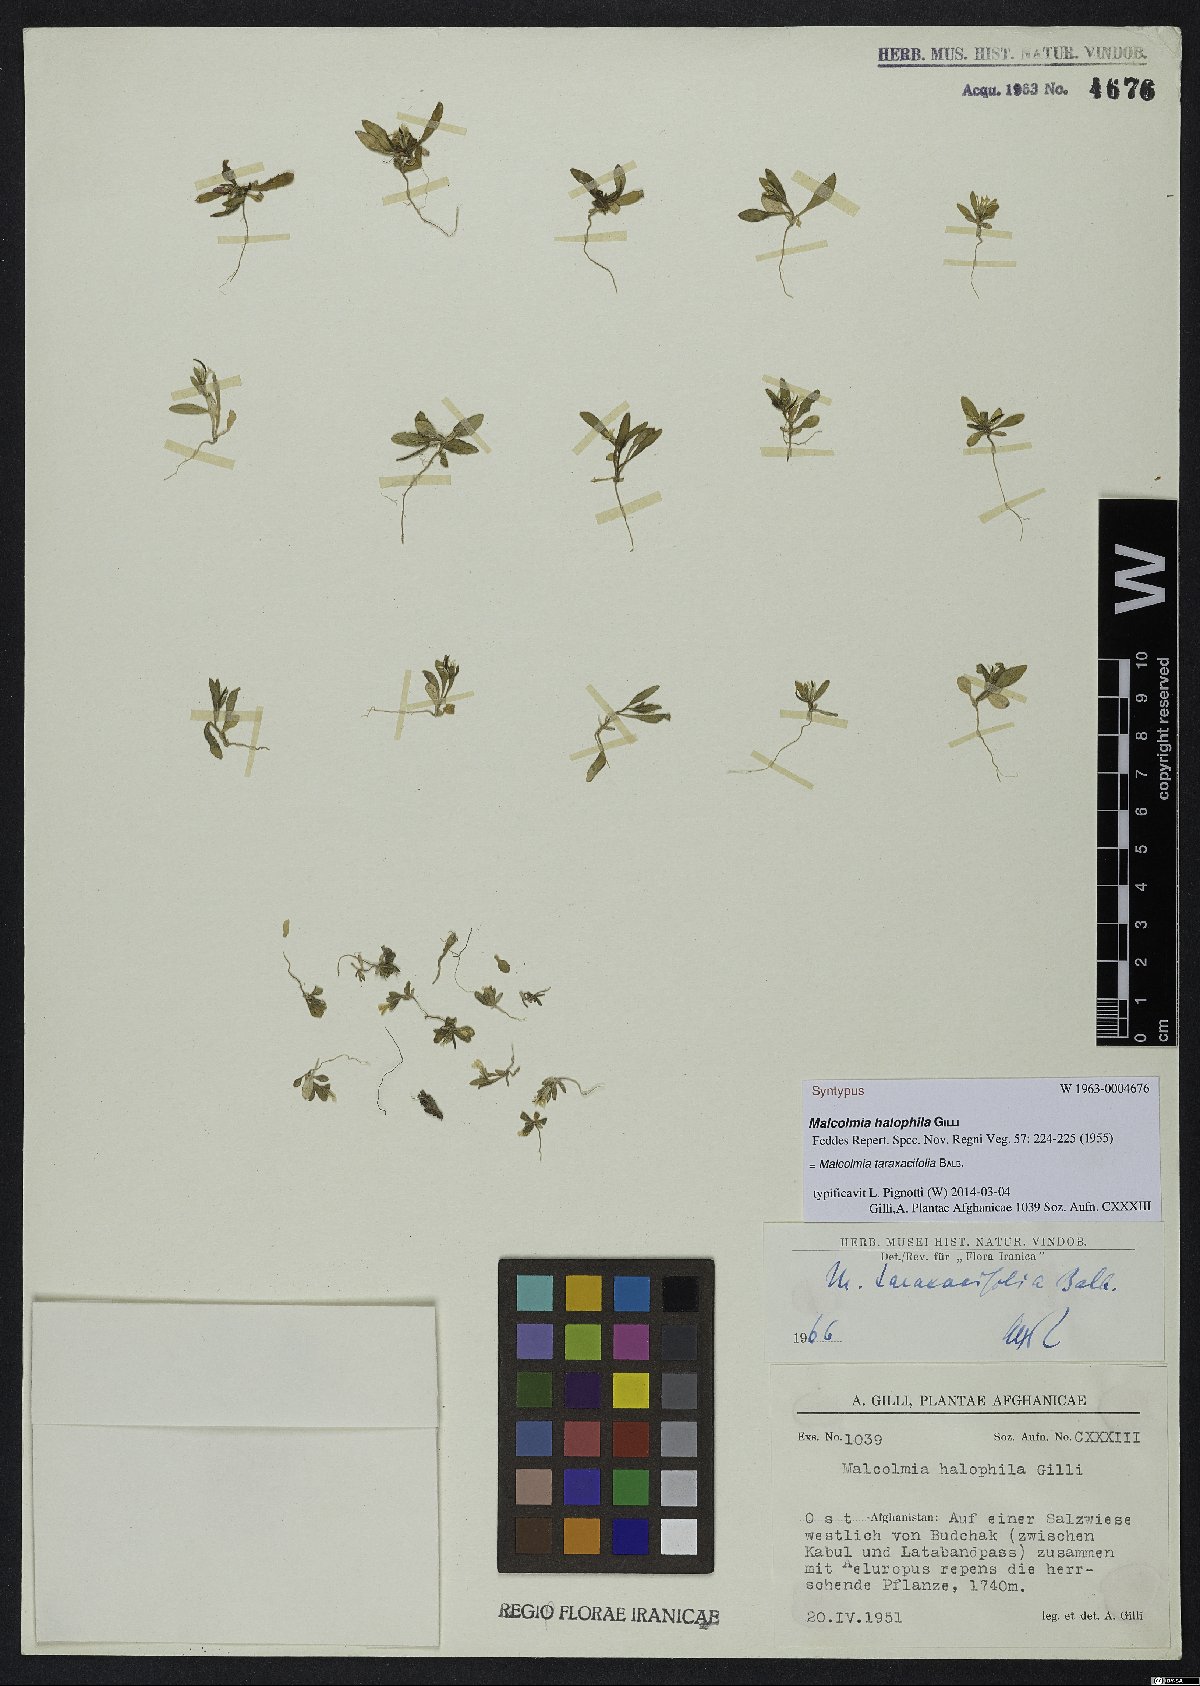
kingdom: Plantae
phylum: Tracheophyta
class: Magnoliopsida
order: Brassicales
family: Brassicaceae
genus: Strigosella
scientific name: Strigosella africana
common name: African mustard
